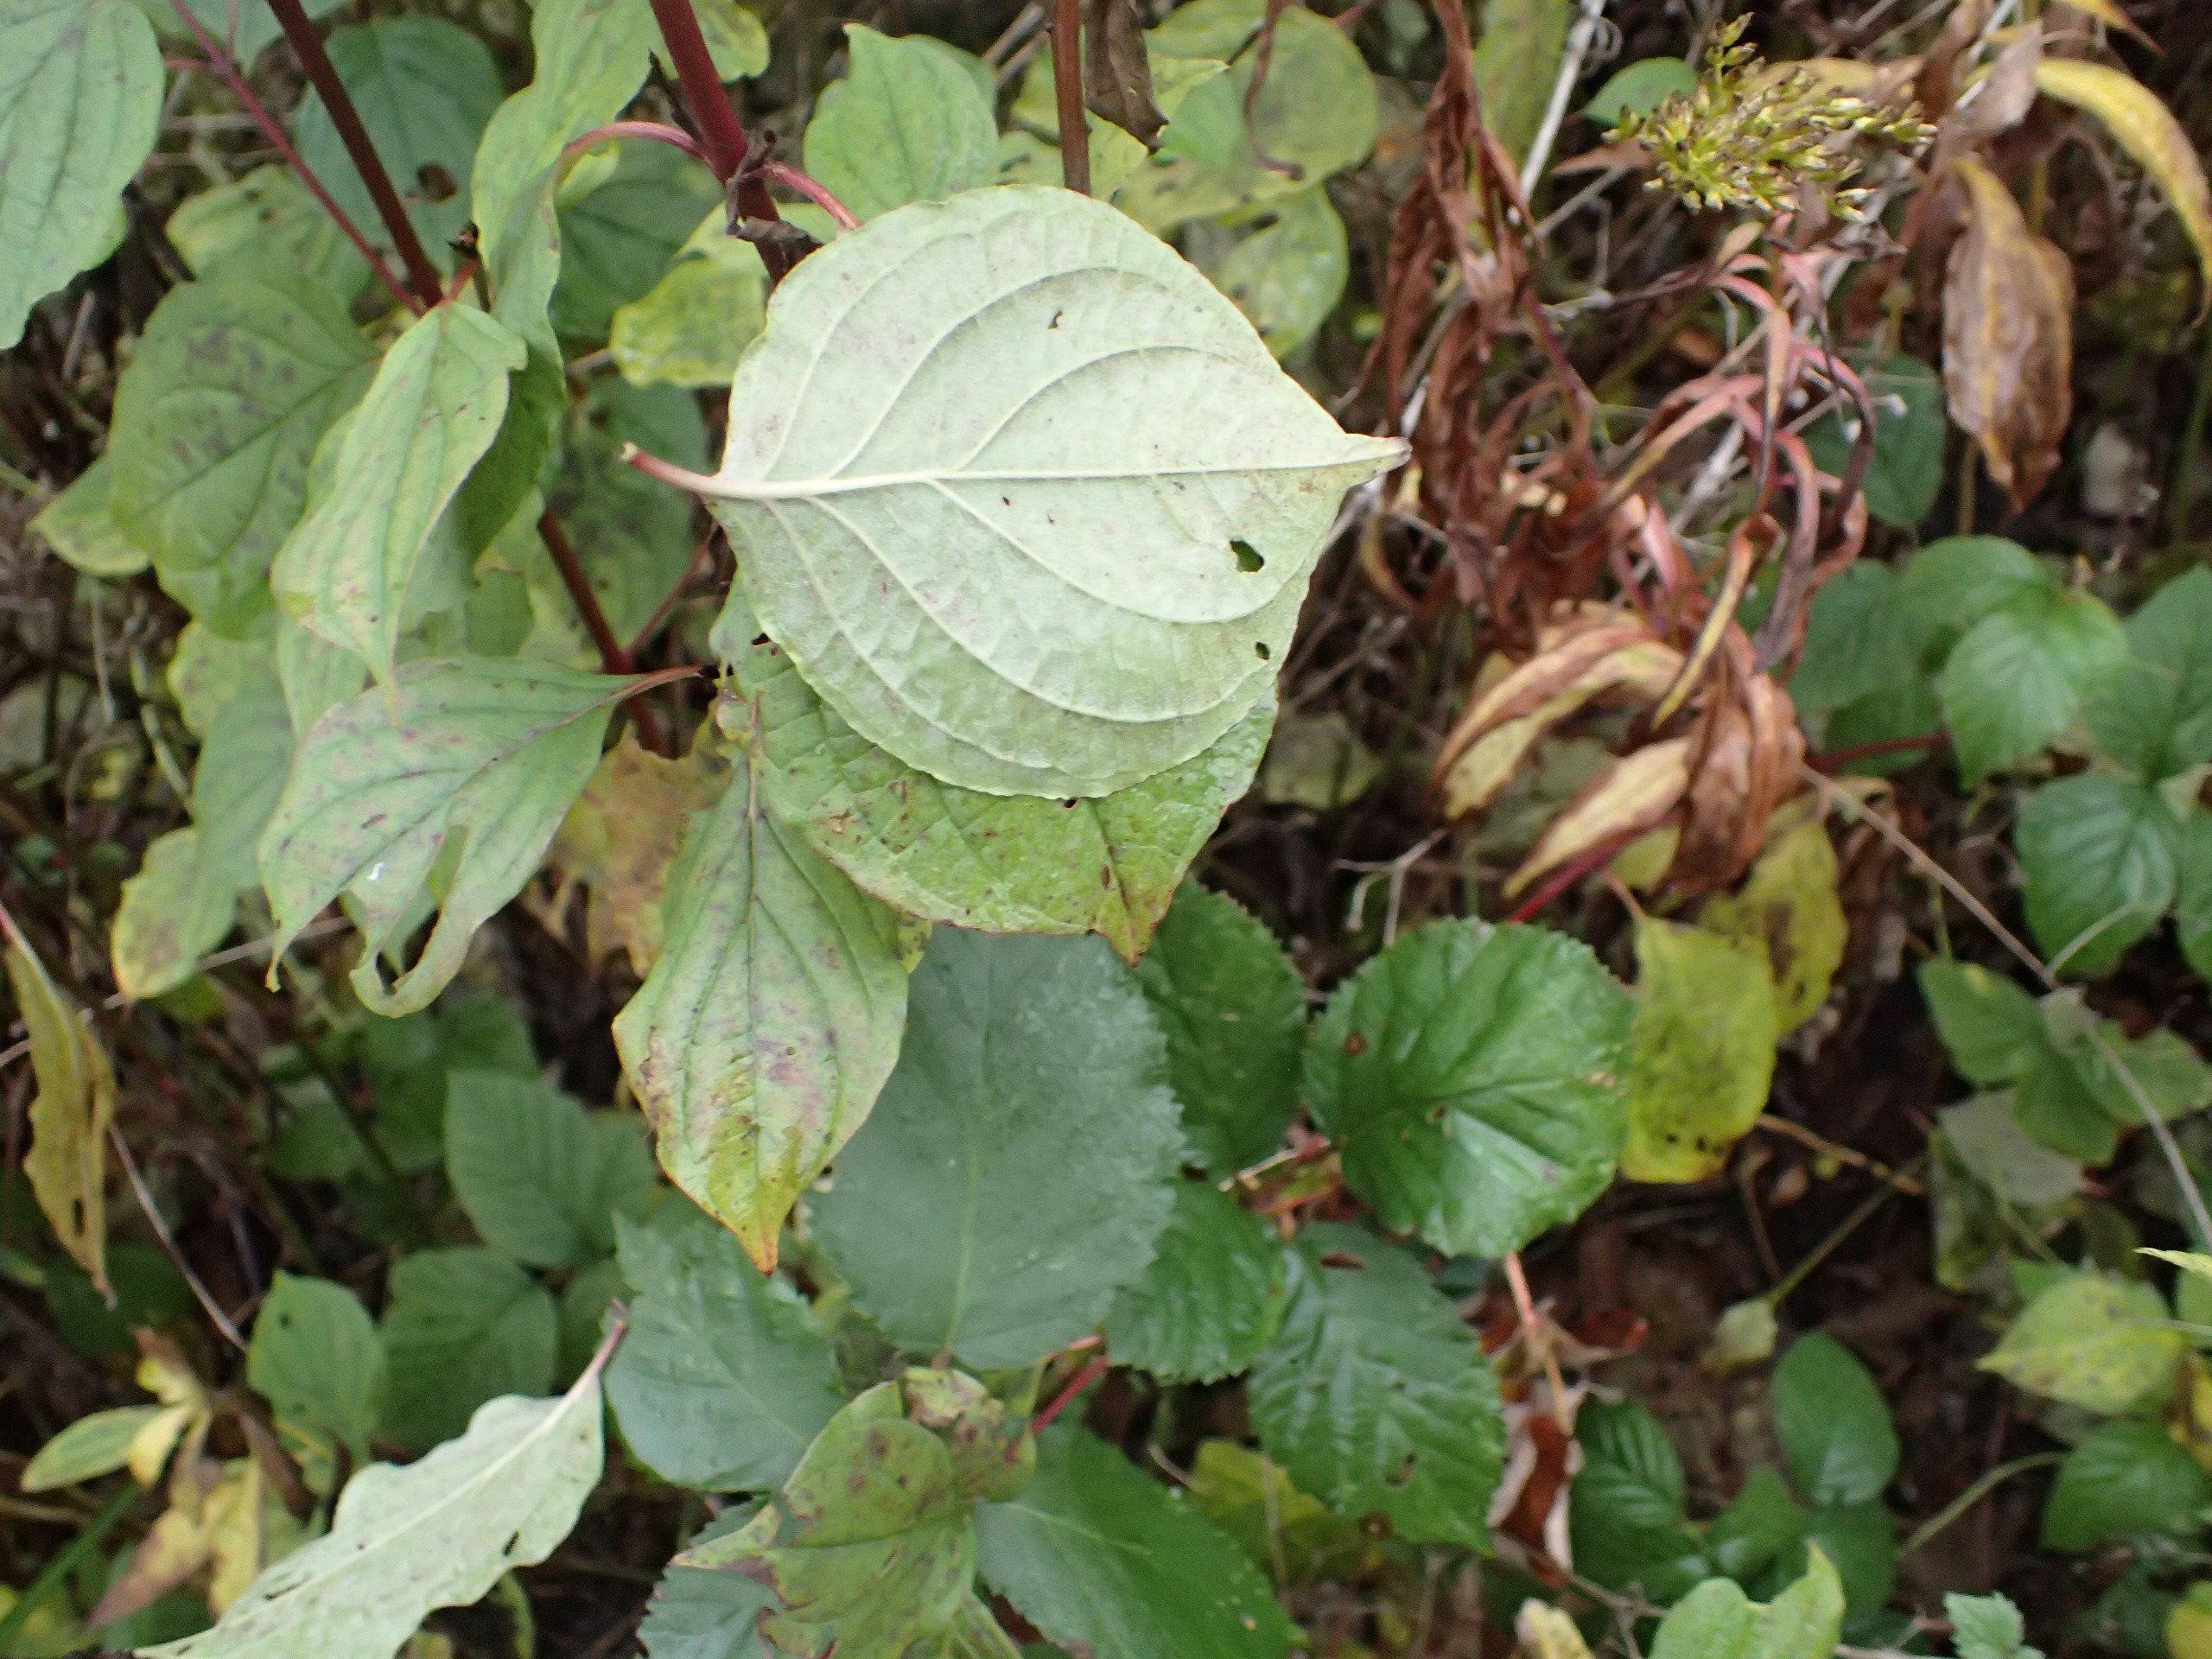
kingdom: Plantae
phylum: Tracheophyta
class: Magnoliopsida
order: Cornales
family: Cornaceae
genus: Cornus
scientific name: Cornus sanguinea
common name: Rød kornel
